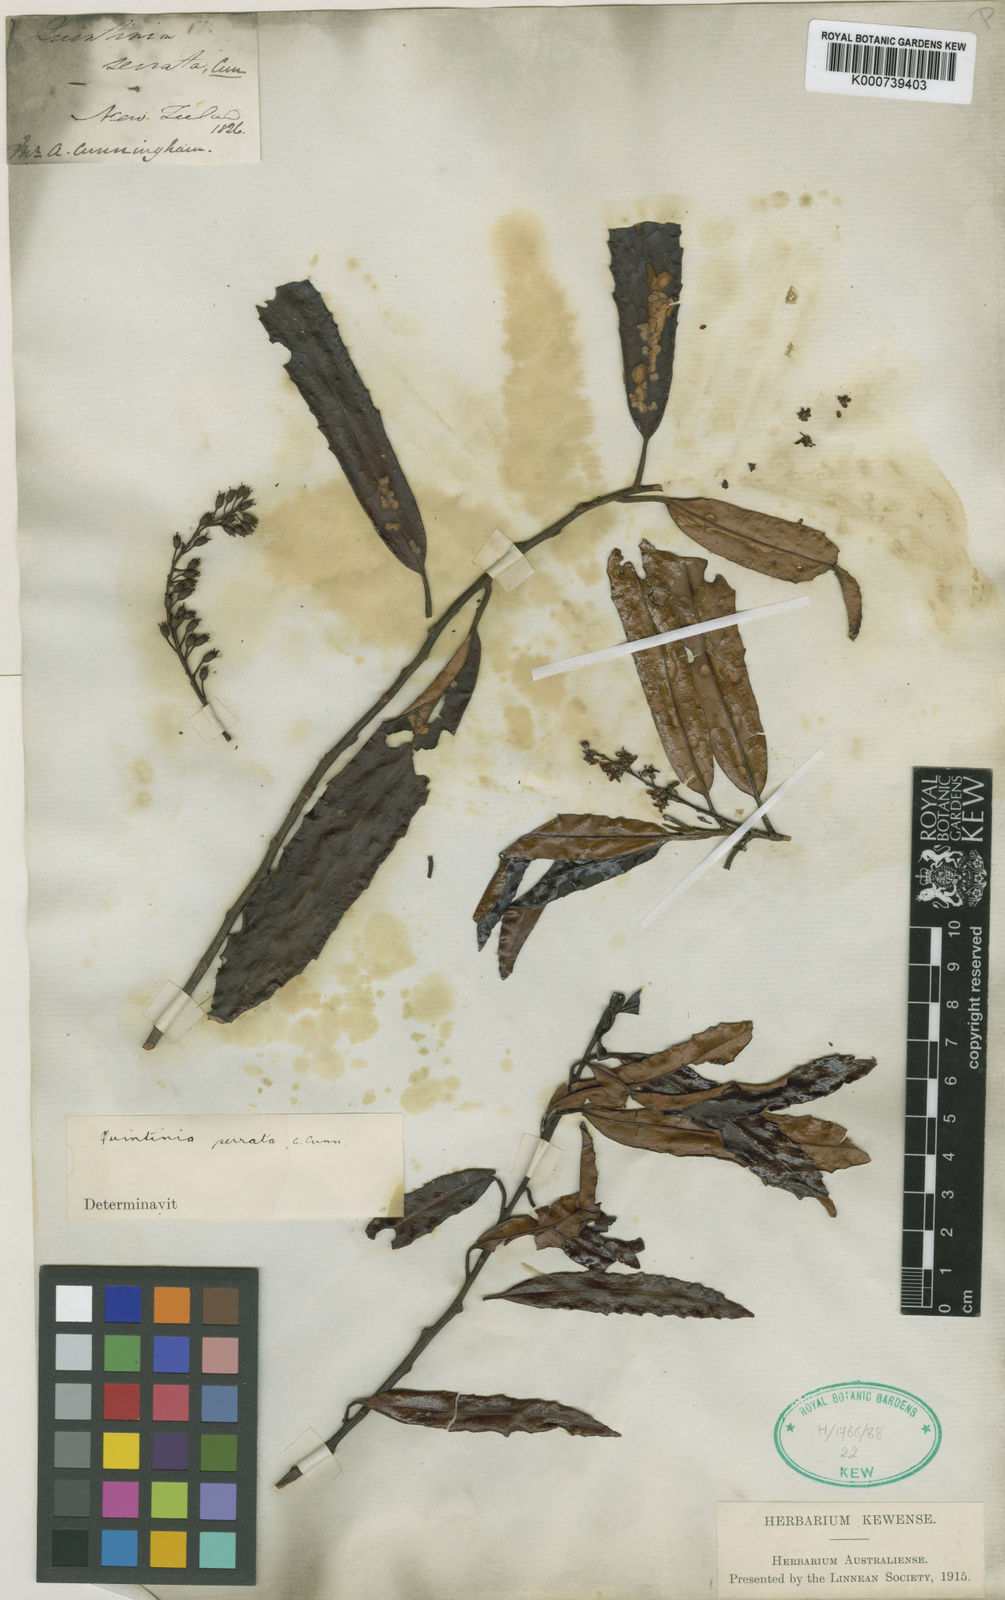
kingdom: Plantae
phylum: Tracheophyta
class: Magnoliopsida
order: Paracryphiales
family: Paracryphiaceae
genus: Quintinia
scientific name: Quintinia serrata
